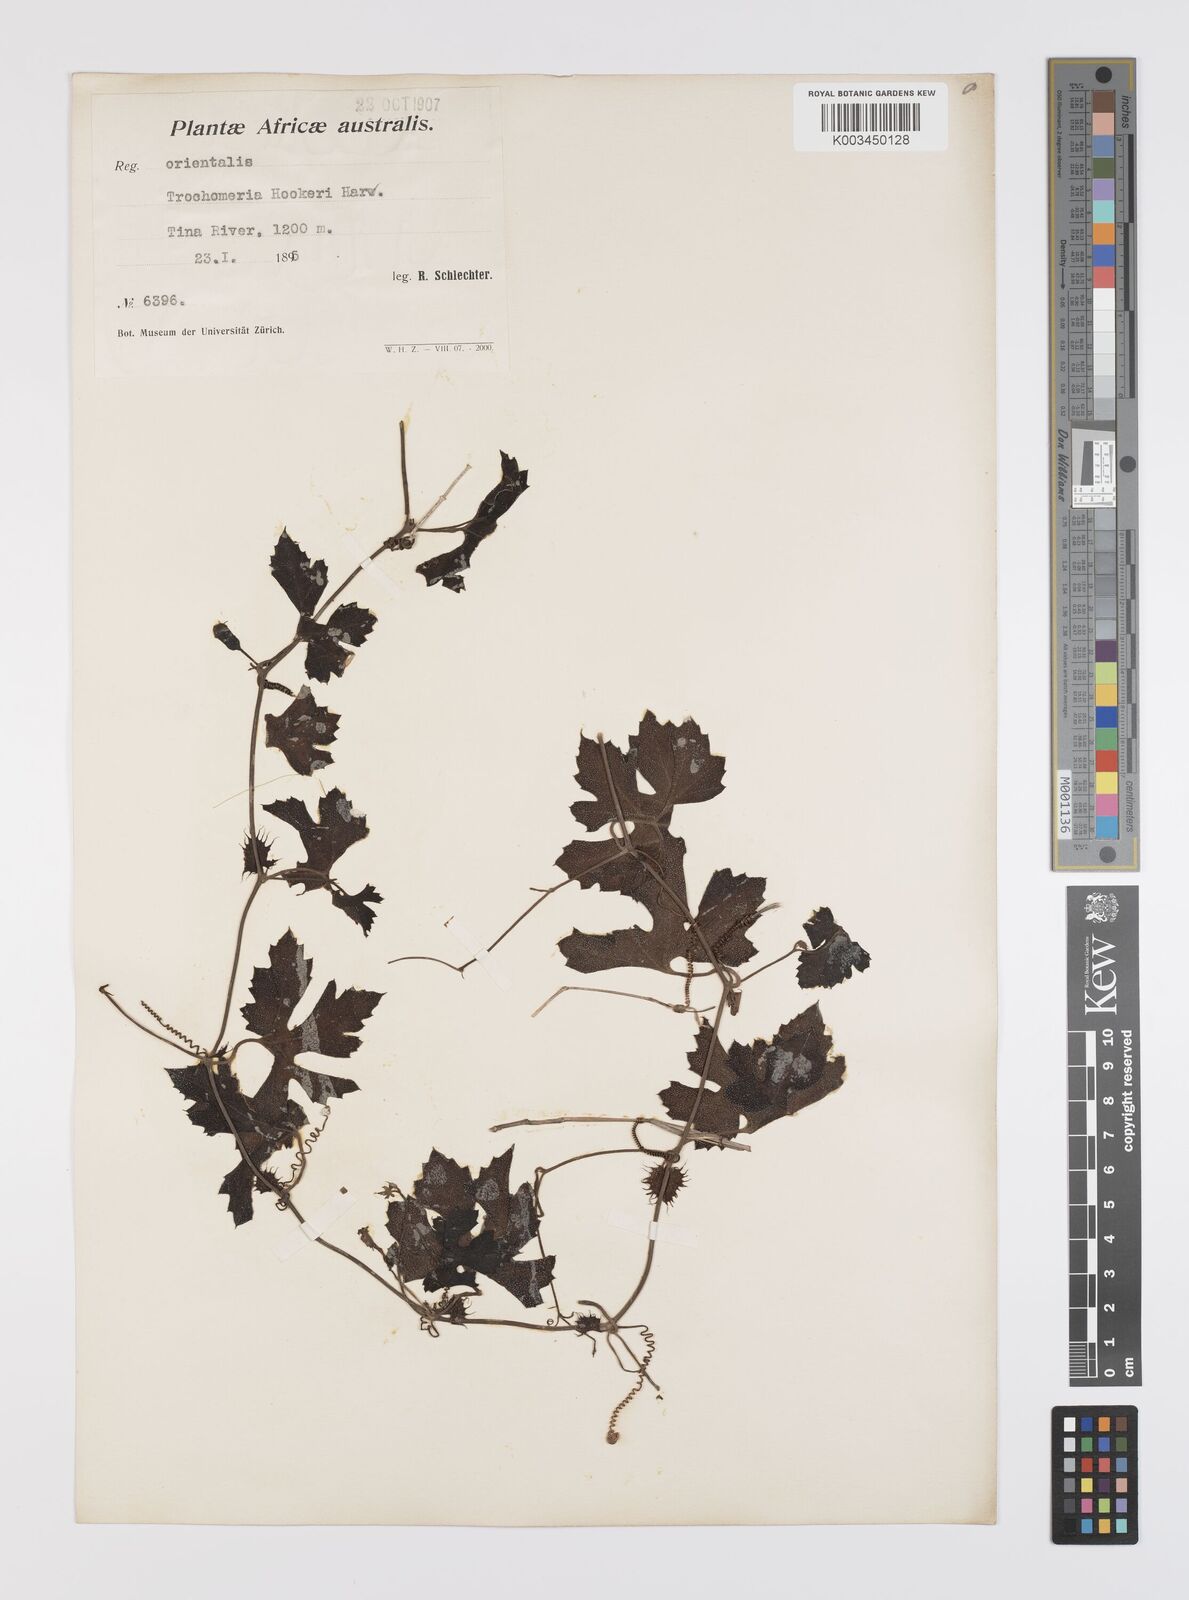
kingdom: Plantae
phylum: Tracheophyta
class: Magnoliopsida
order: Cucurbitales
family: Cucurbitaceae
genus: Trochomeria
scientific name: Trochomeria hookeri
